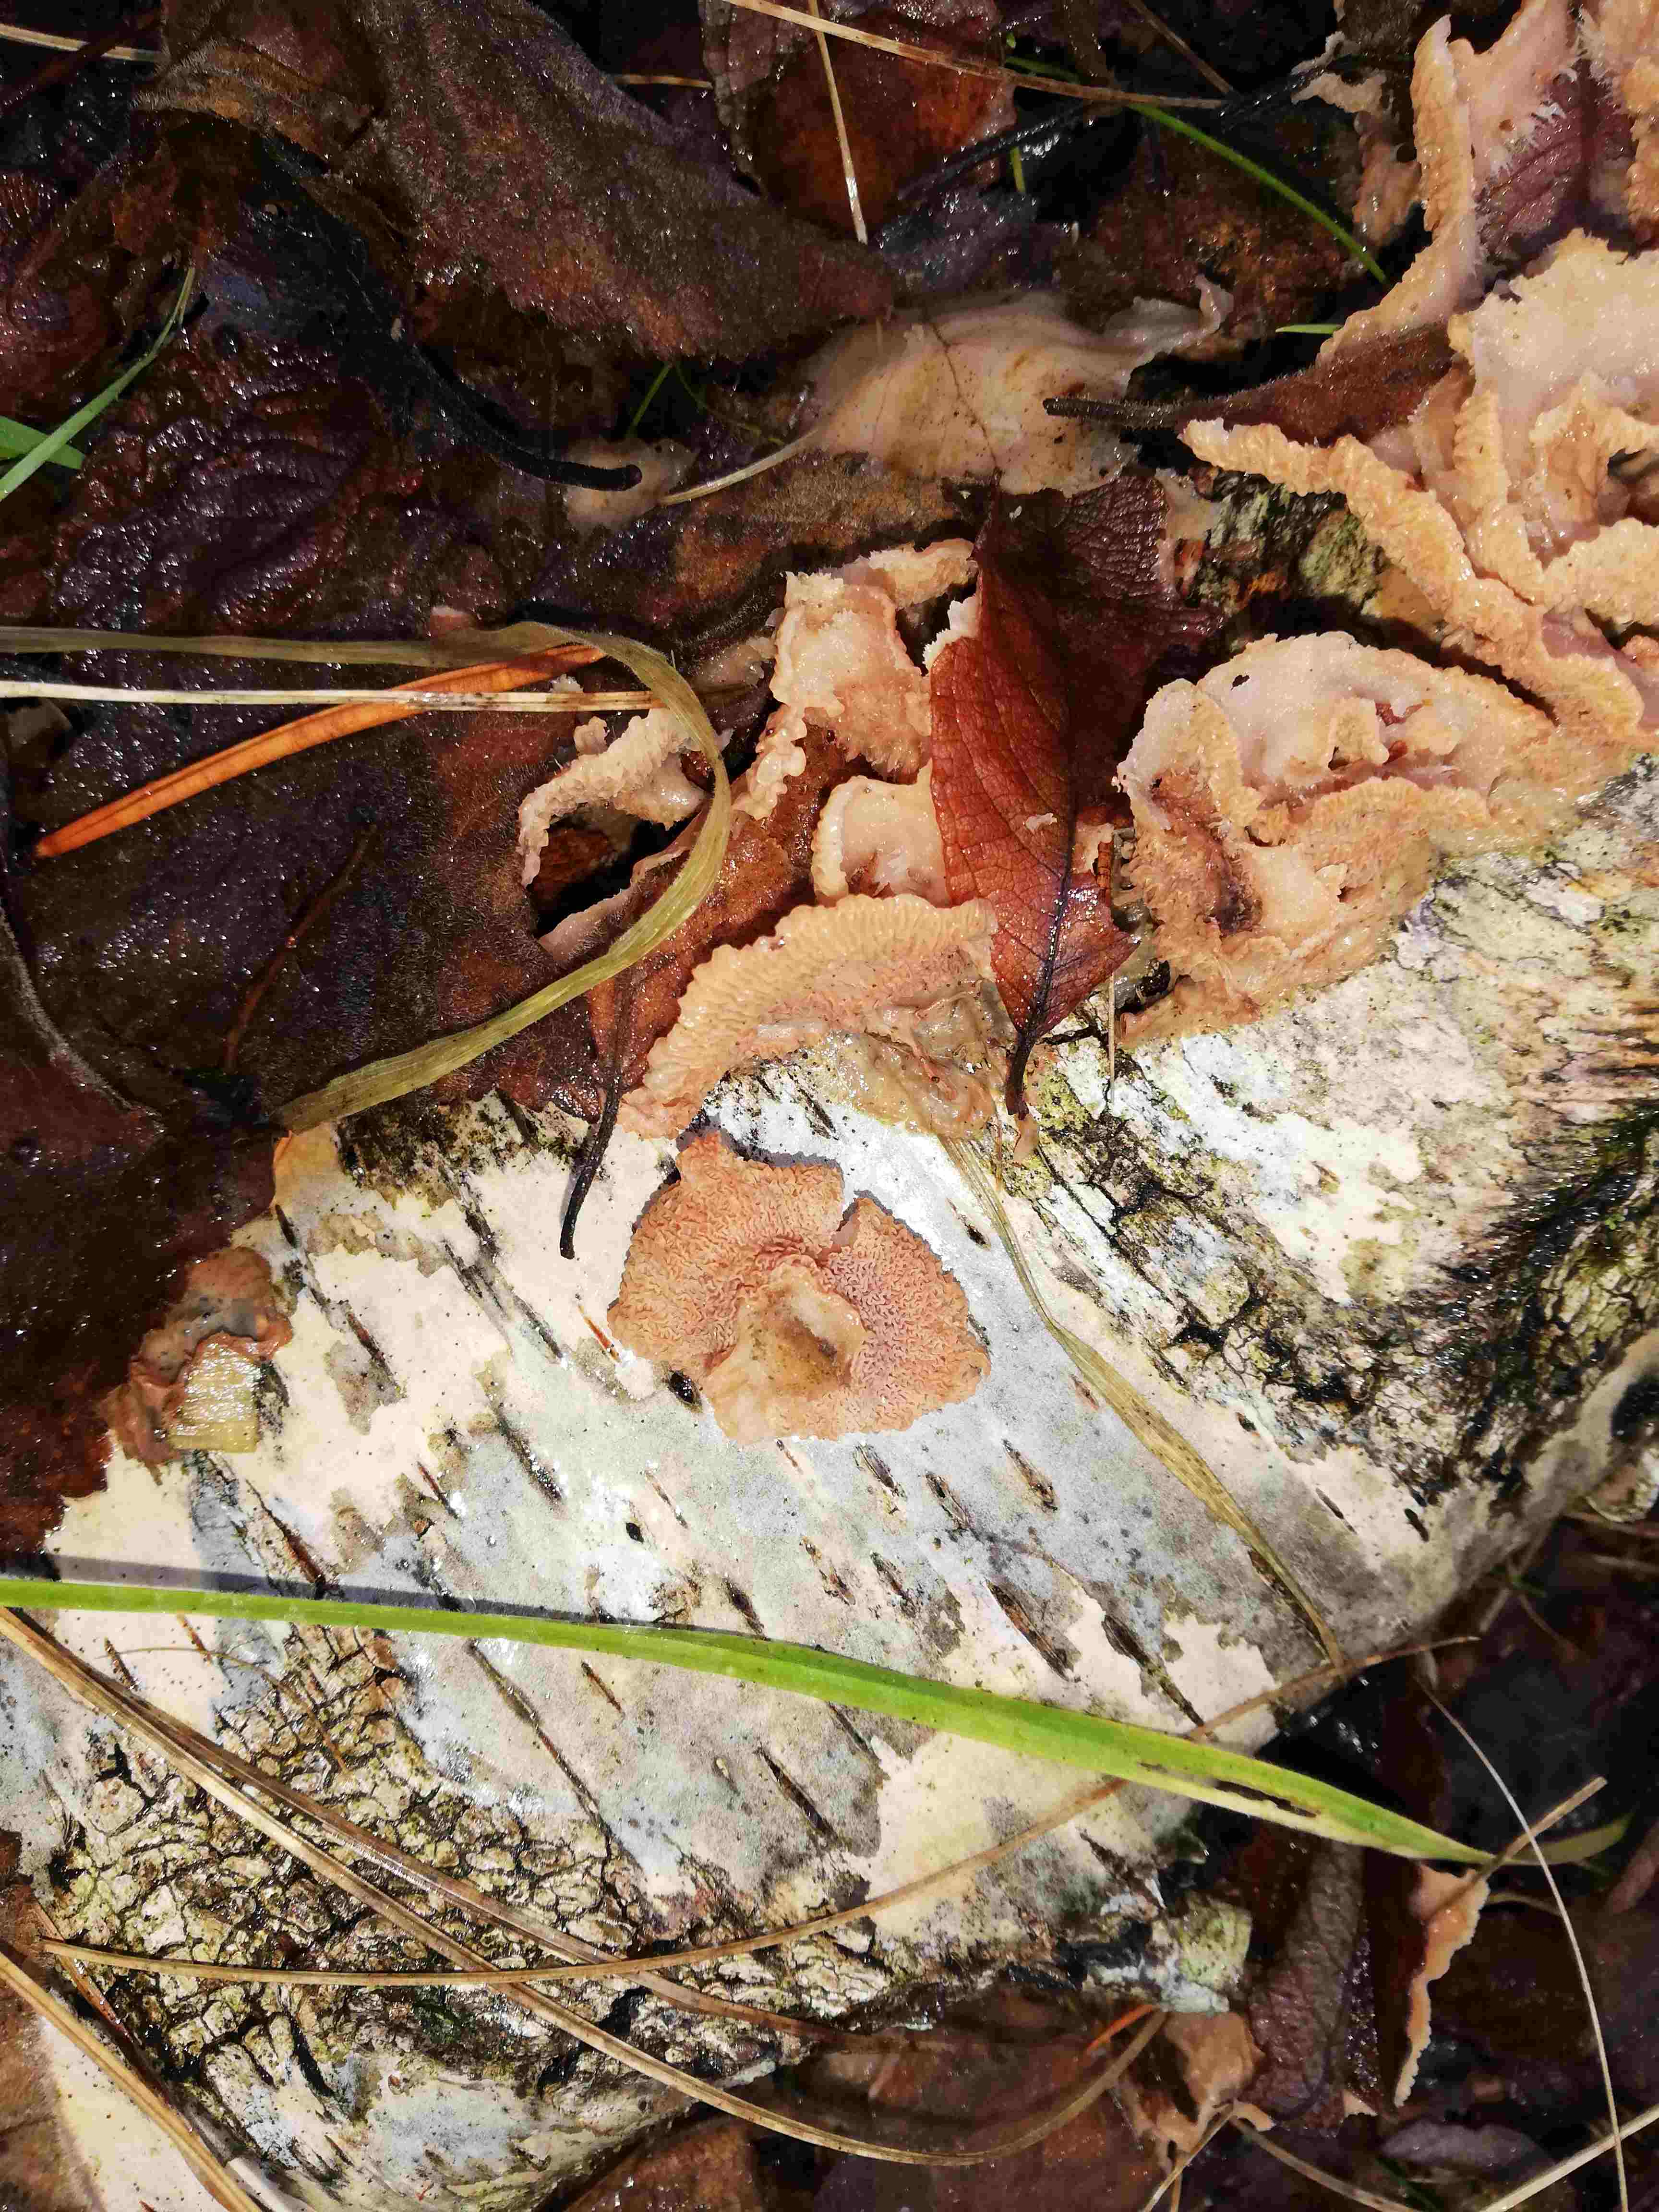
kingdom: Fungi
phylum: Basidiomycota
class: Agaricomycetes
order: Polyporales
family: Meruliaceae
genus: Phlebia
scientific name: Phlebia tremellosa
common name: bævrende åresvamp
